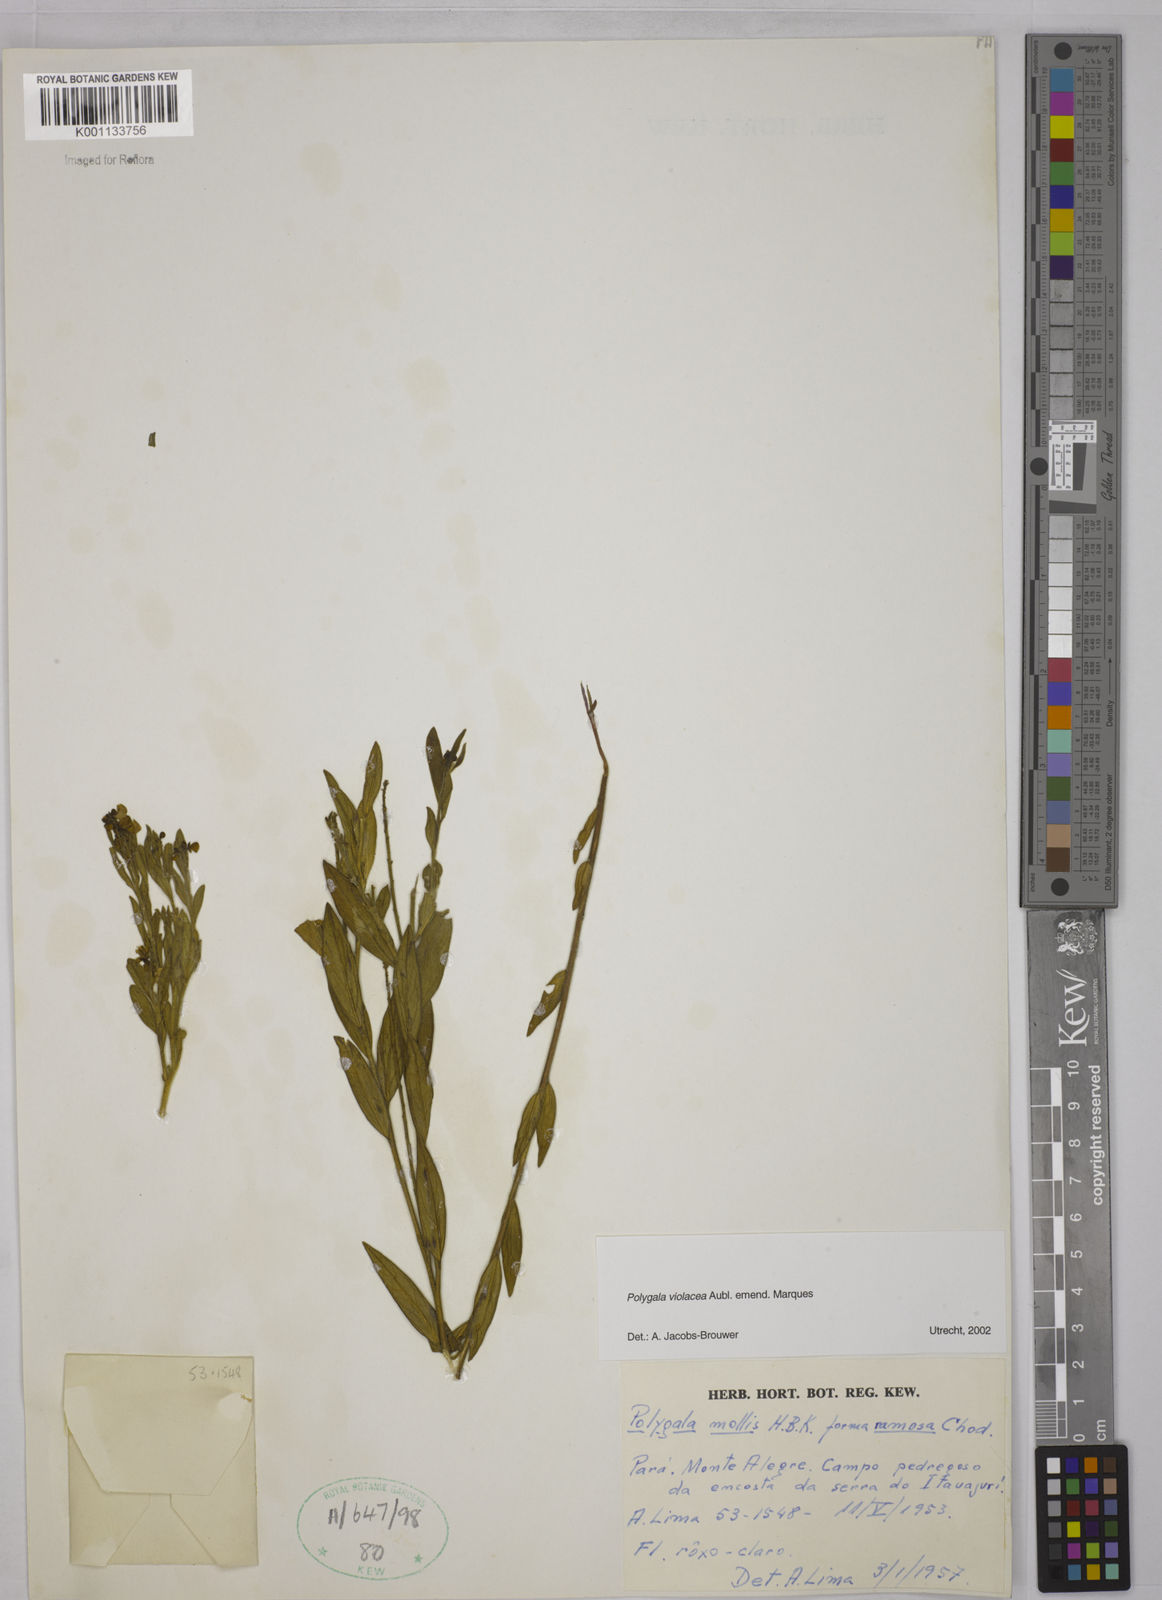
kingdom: Plantae
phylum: Tracheophyta
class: Magnoliopsida
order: Fabales
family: Polygalaceae
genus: Asemeia
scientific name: Asemeia monticola
